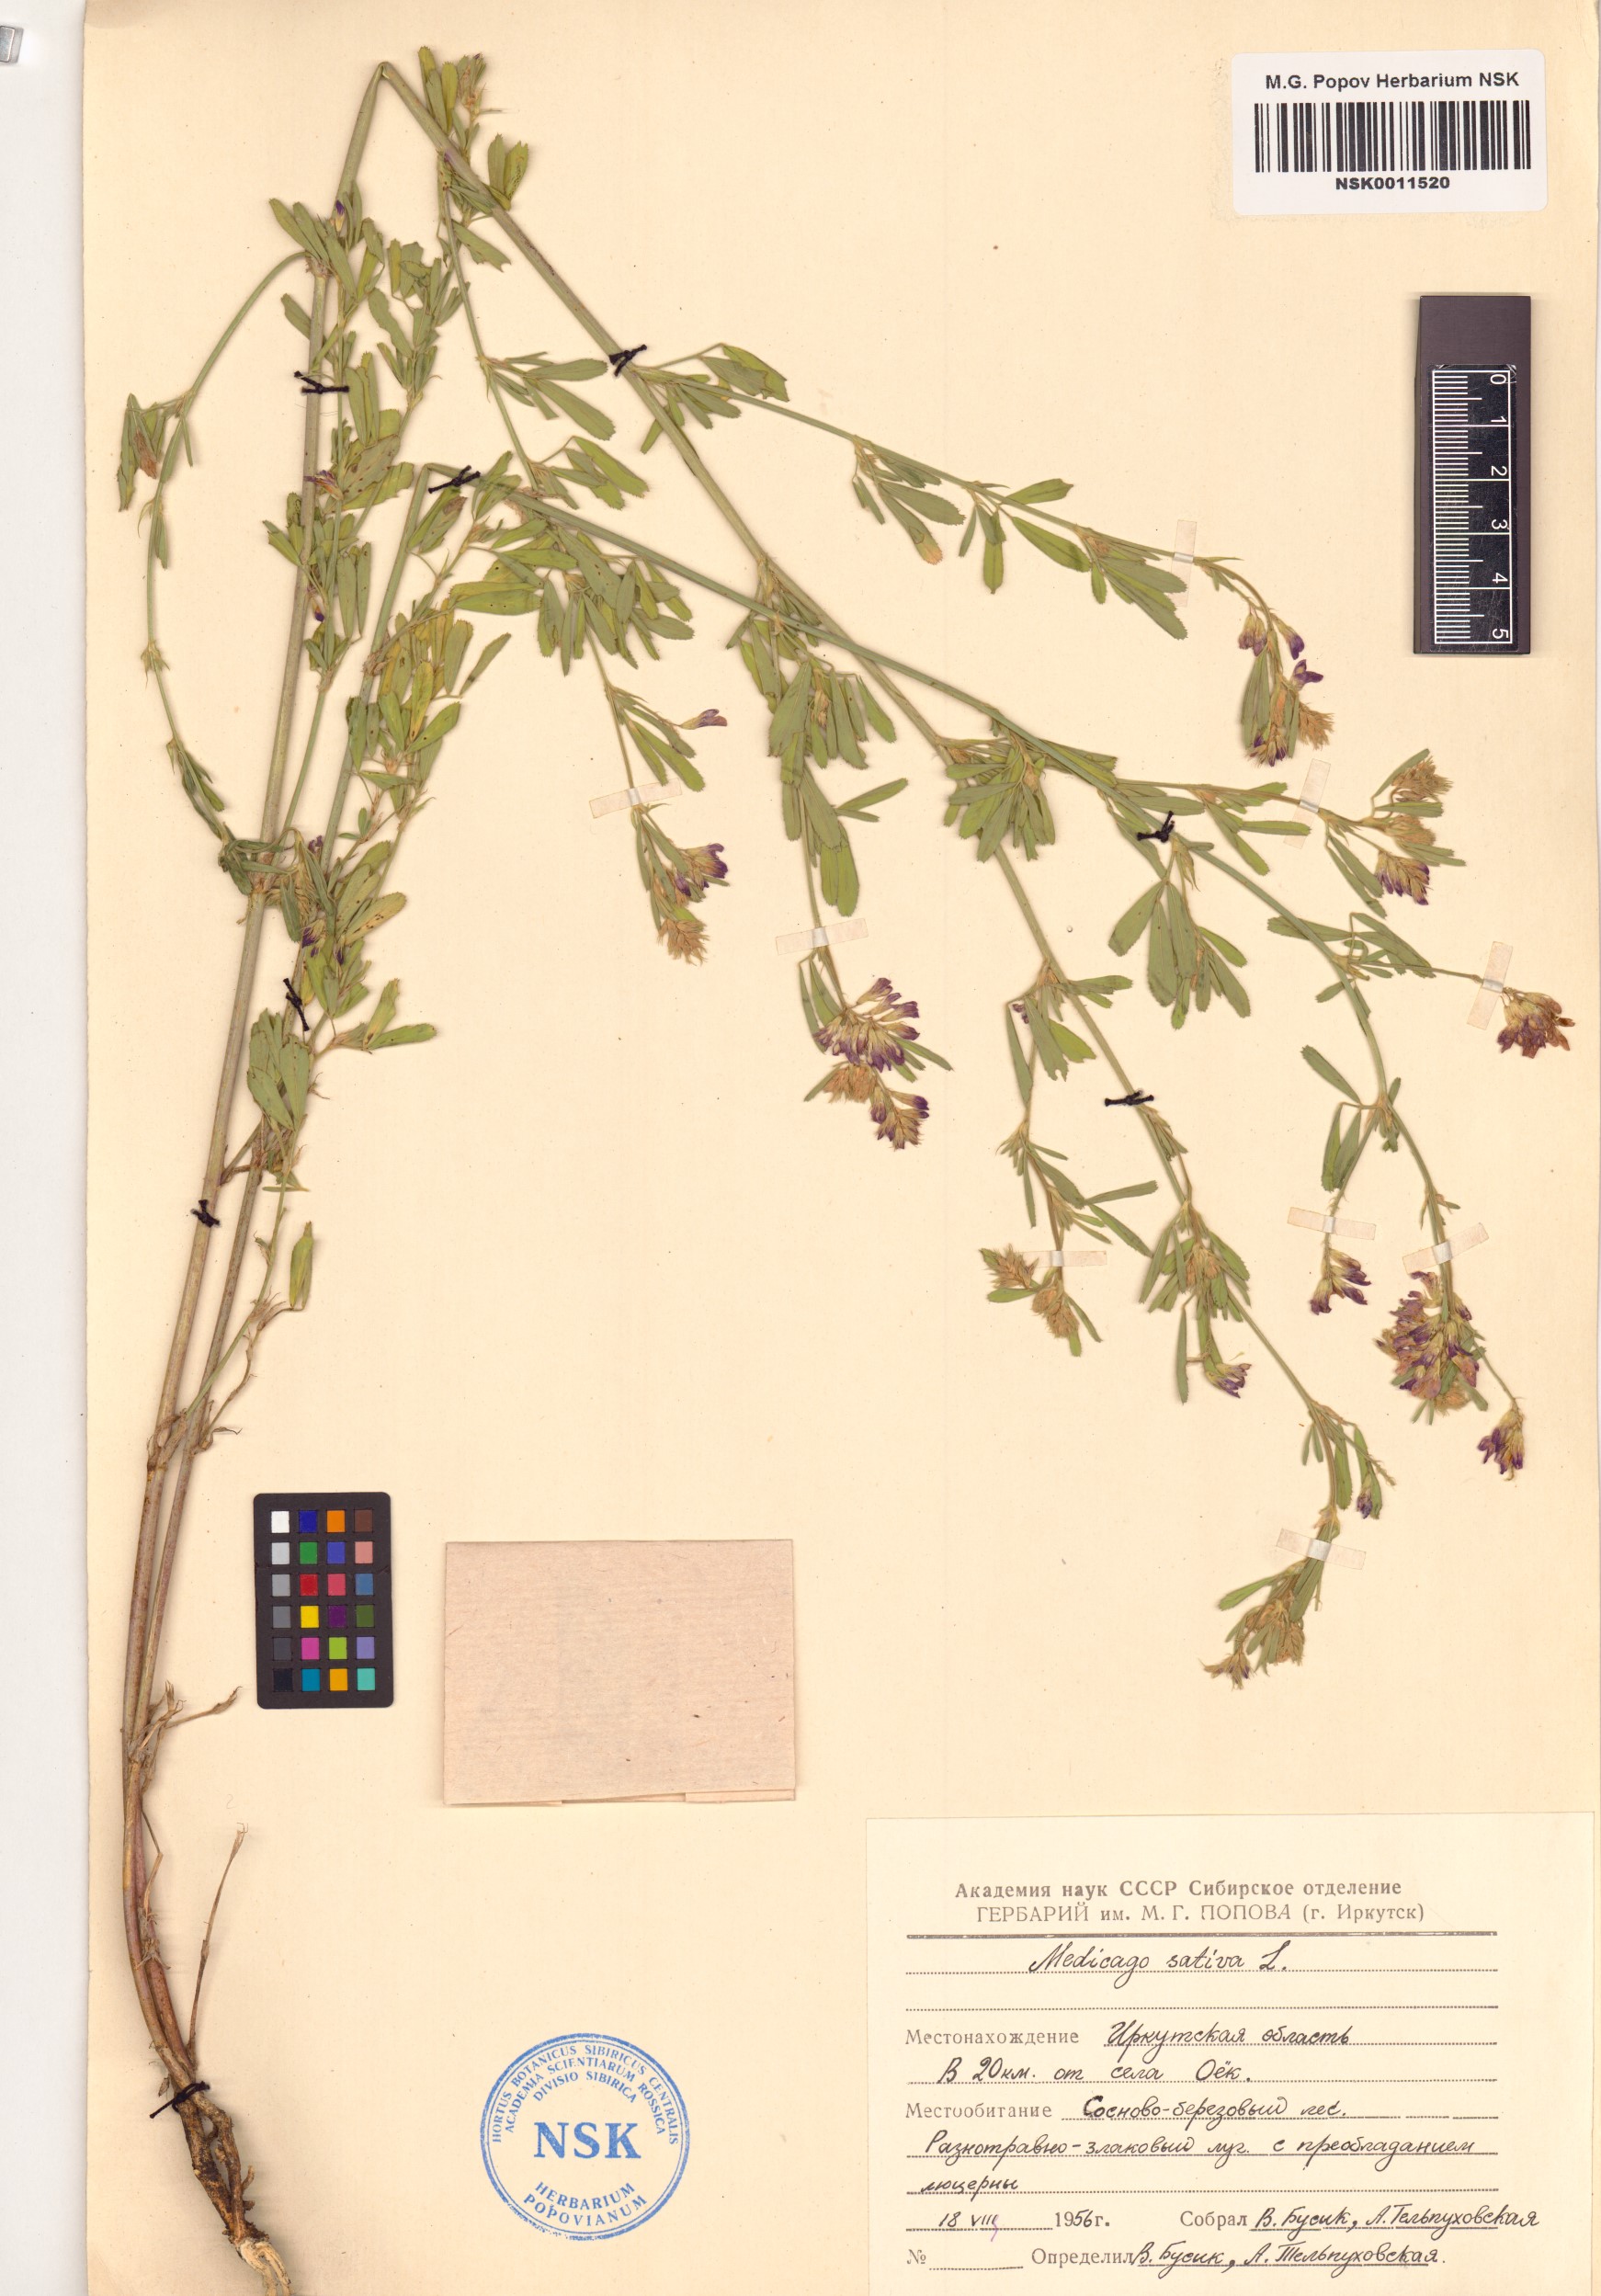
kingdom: Plantae
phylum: Tracheophyta
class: Magnoliopsida
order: Fabales
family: Fabaceae
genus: Medicago
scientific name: Medicago sativa
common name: Alfalfa
